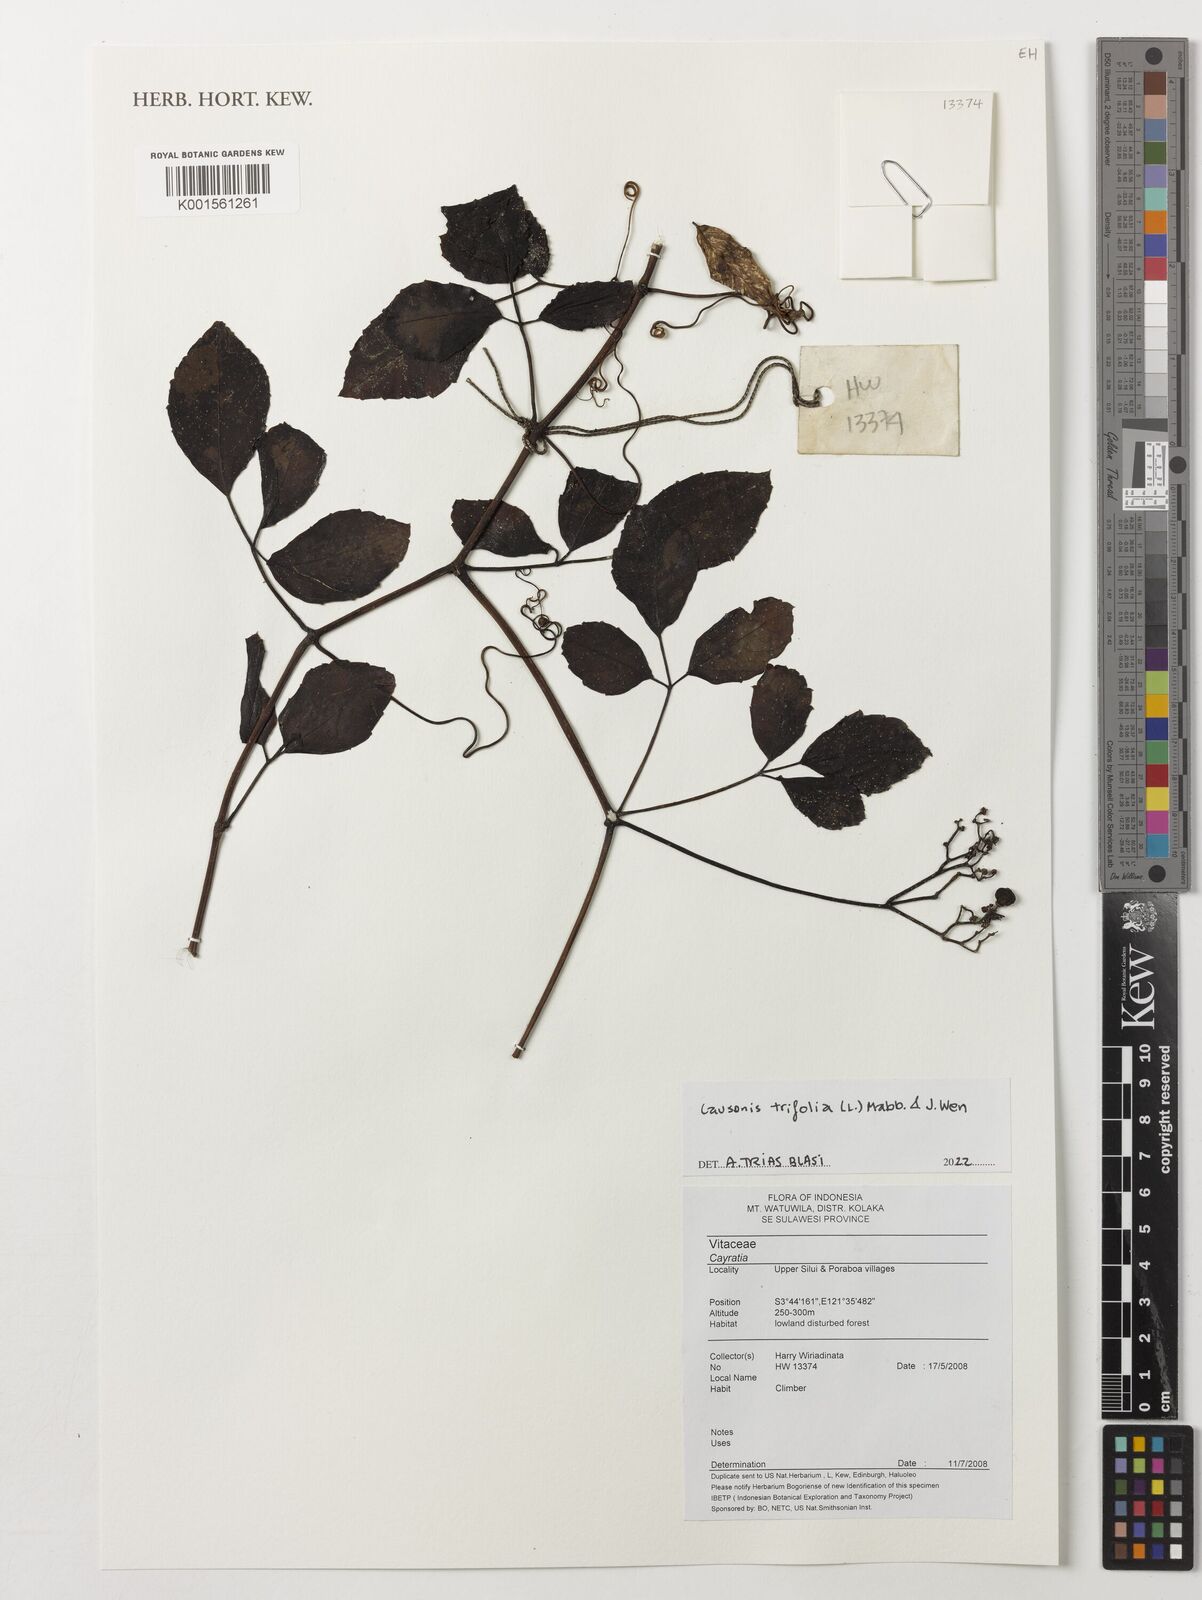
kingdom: Plantae
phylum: Tracheophyta
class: Magnoliopsida
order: Vitales
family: Vitaceae
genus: Causonis
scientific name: Causonis trifolia
